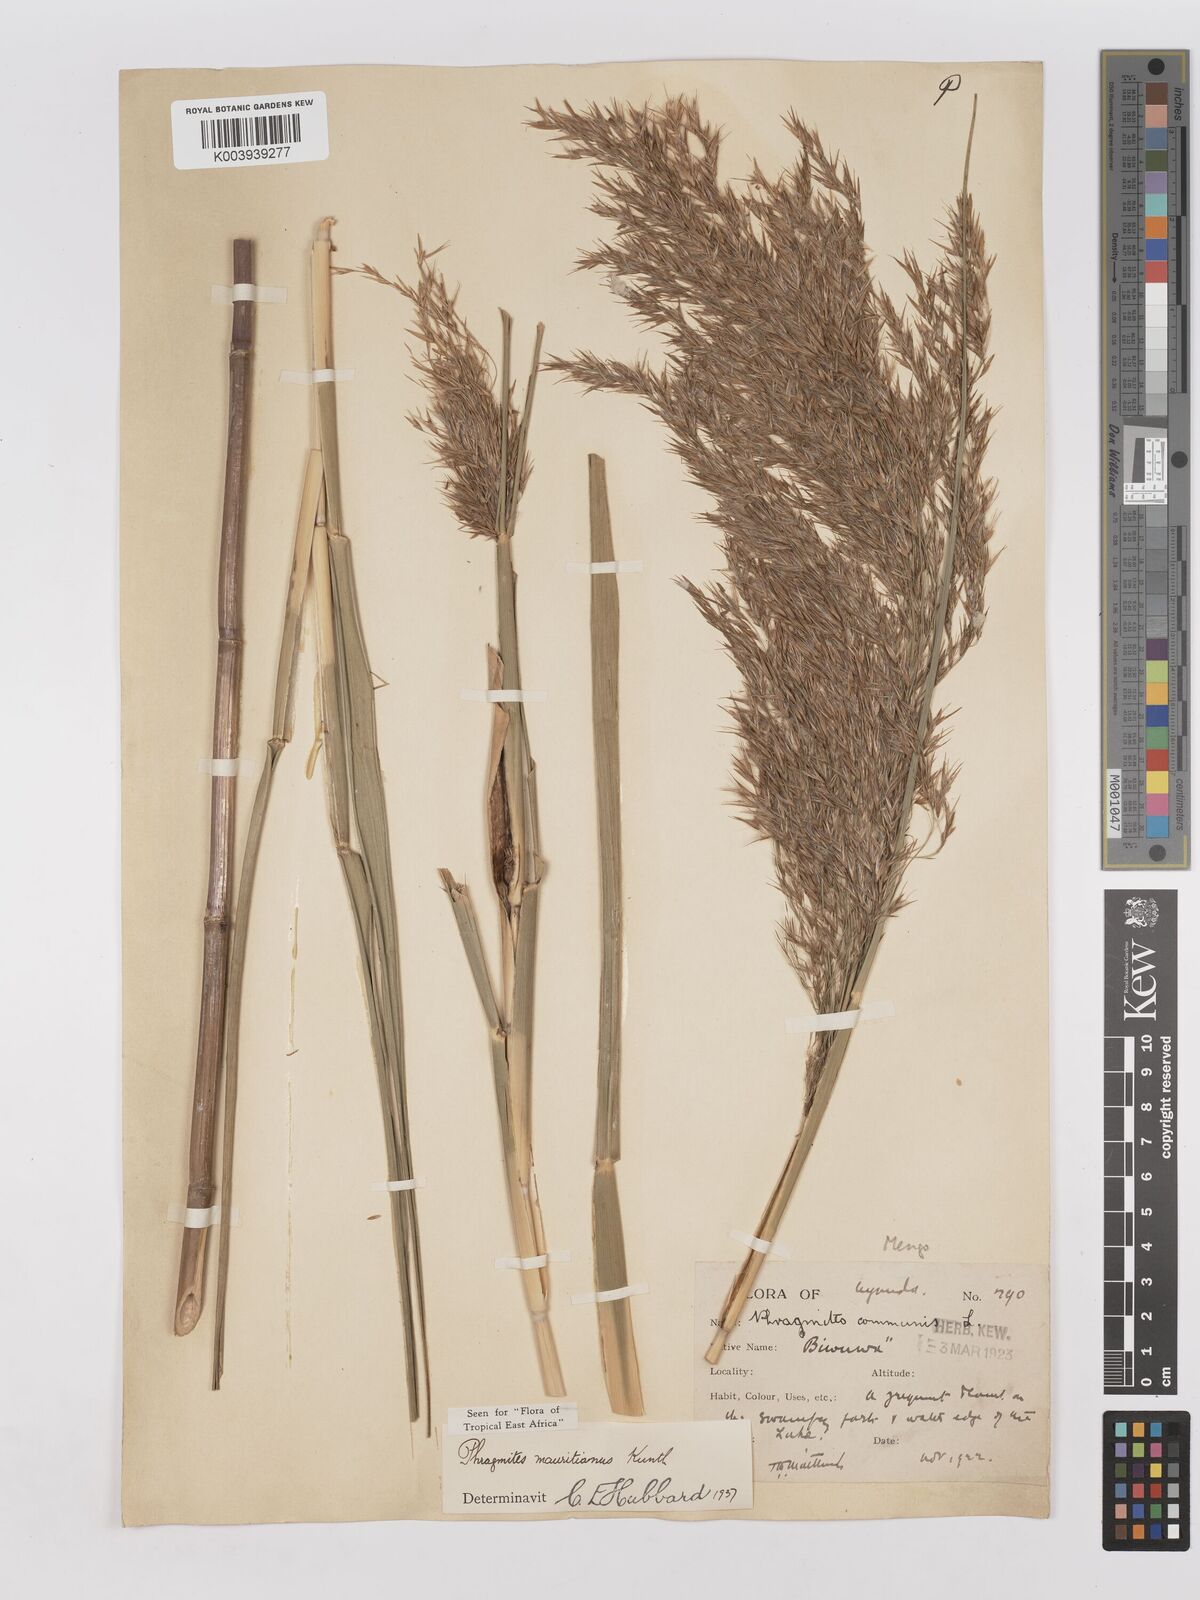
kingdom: Plantae
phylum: Tracheophyta
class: Liliopsida
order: Poales
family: Poaceae
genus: Phragmites
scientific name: Phragmites mauritianus
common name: Reed grass
